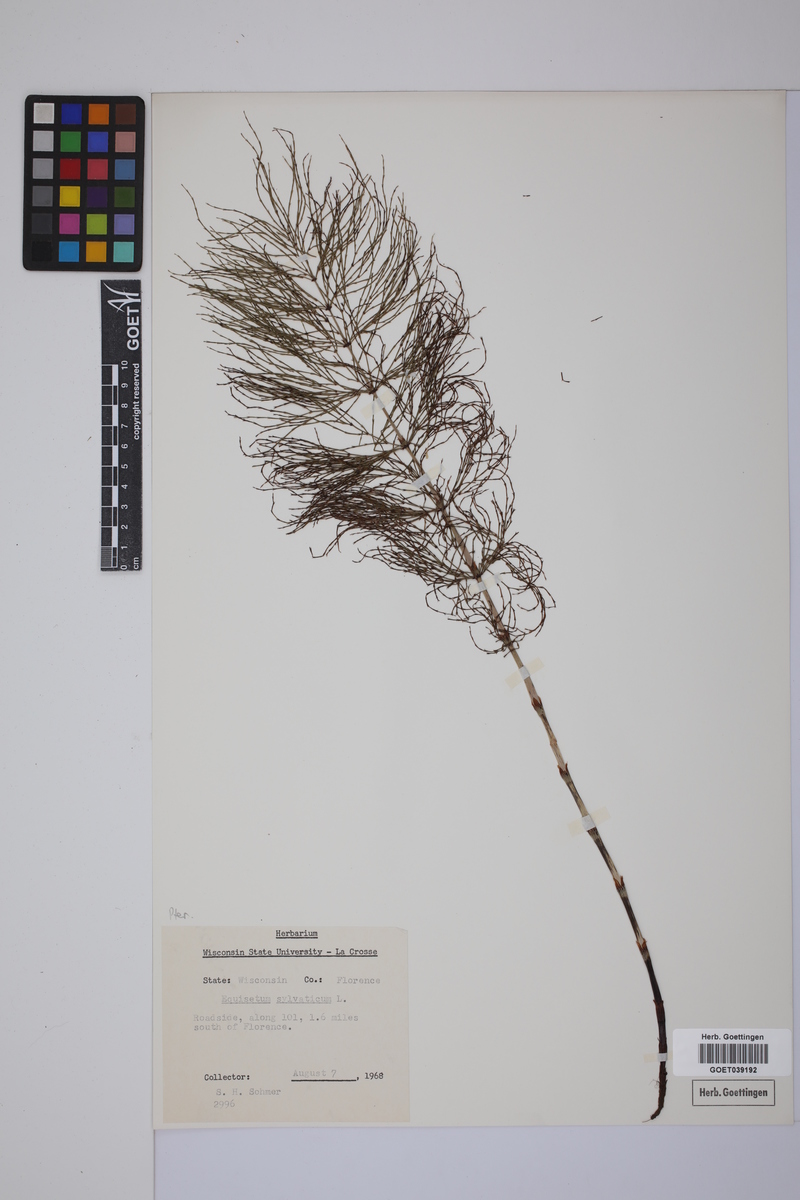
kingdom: Plantae
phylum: Tracheophyta
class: Polypodiopsida
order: Equisetales
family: Equisetaceae
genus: Equisetum
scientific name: Equisetum sylvaticum
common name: Wood horsetail
